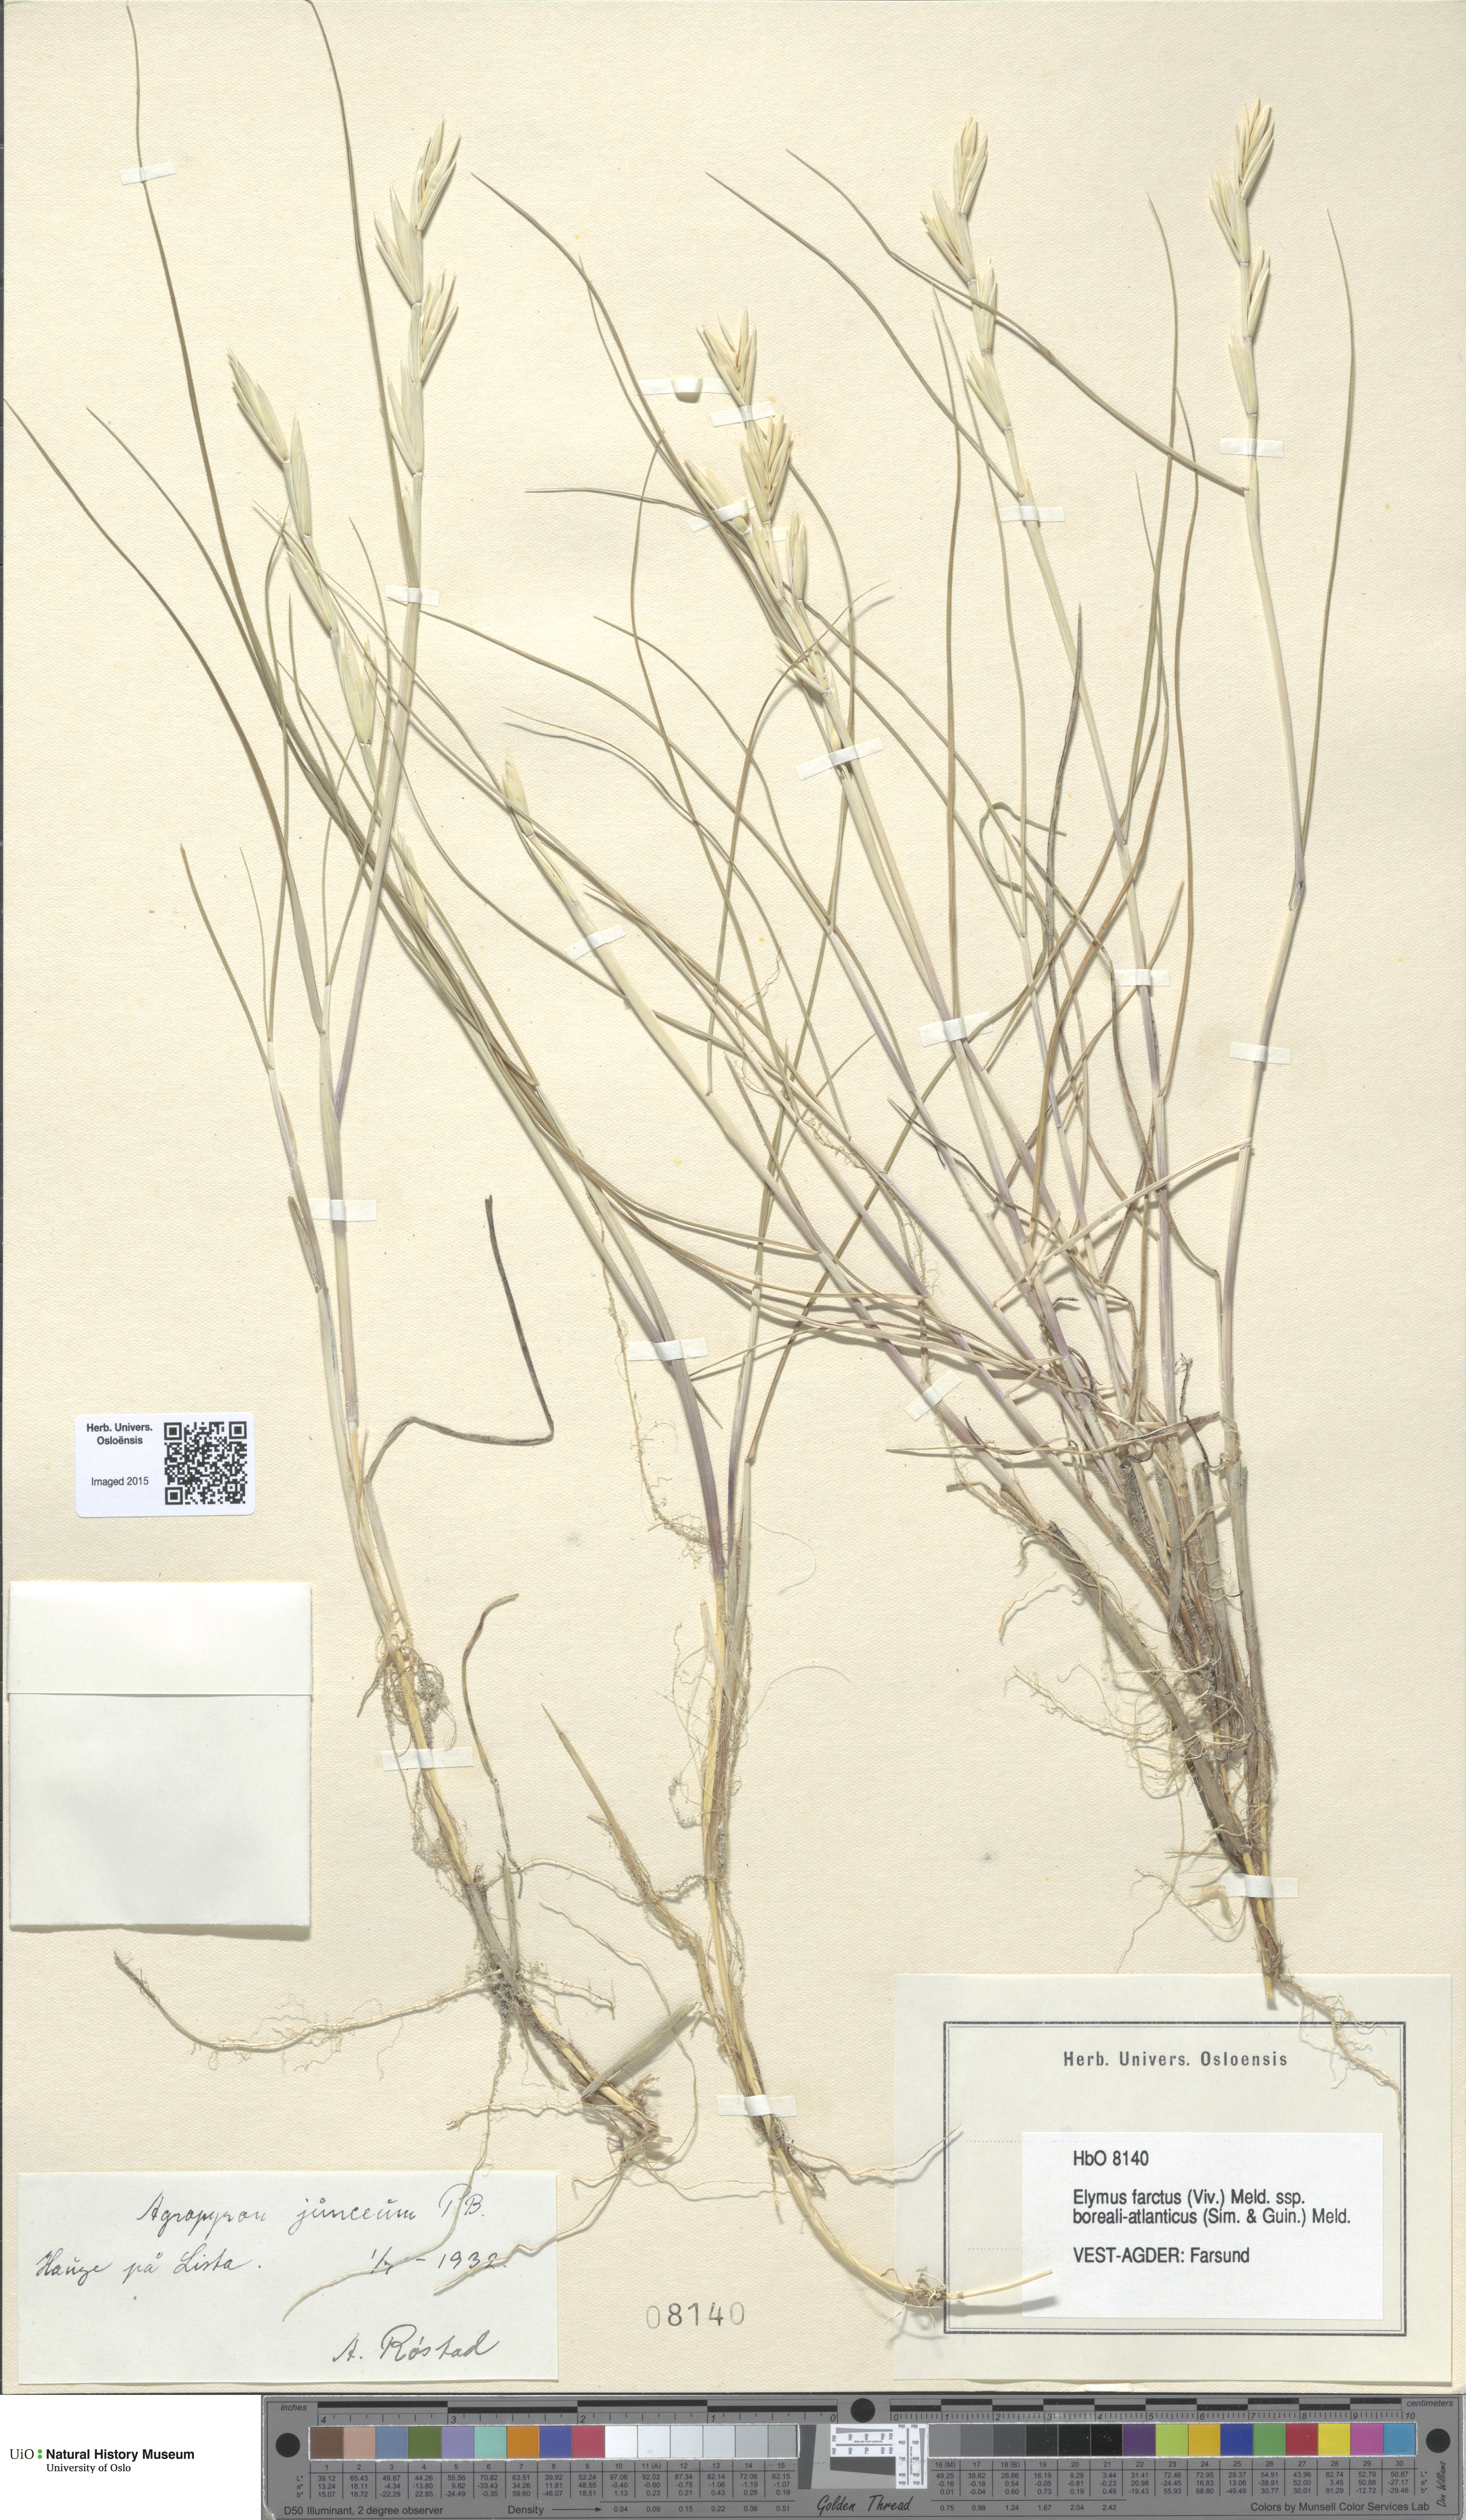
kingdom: Plantae
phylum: Tracheophyta
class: Liliopsida
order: Poales
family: Poaceae
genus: Thinopyrum
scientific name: Thinopyrum junceum
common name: Russian wheatgrass
